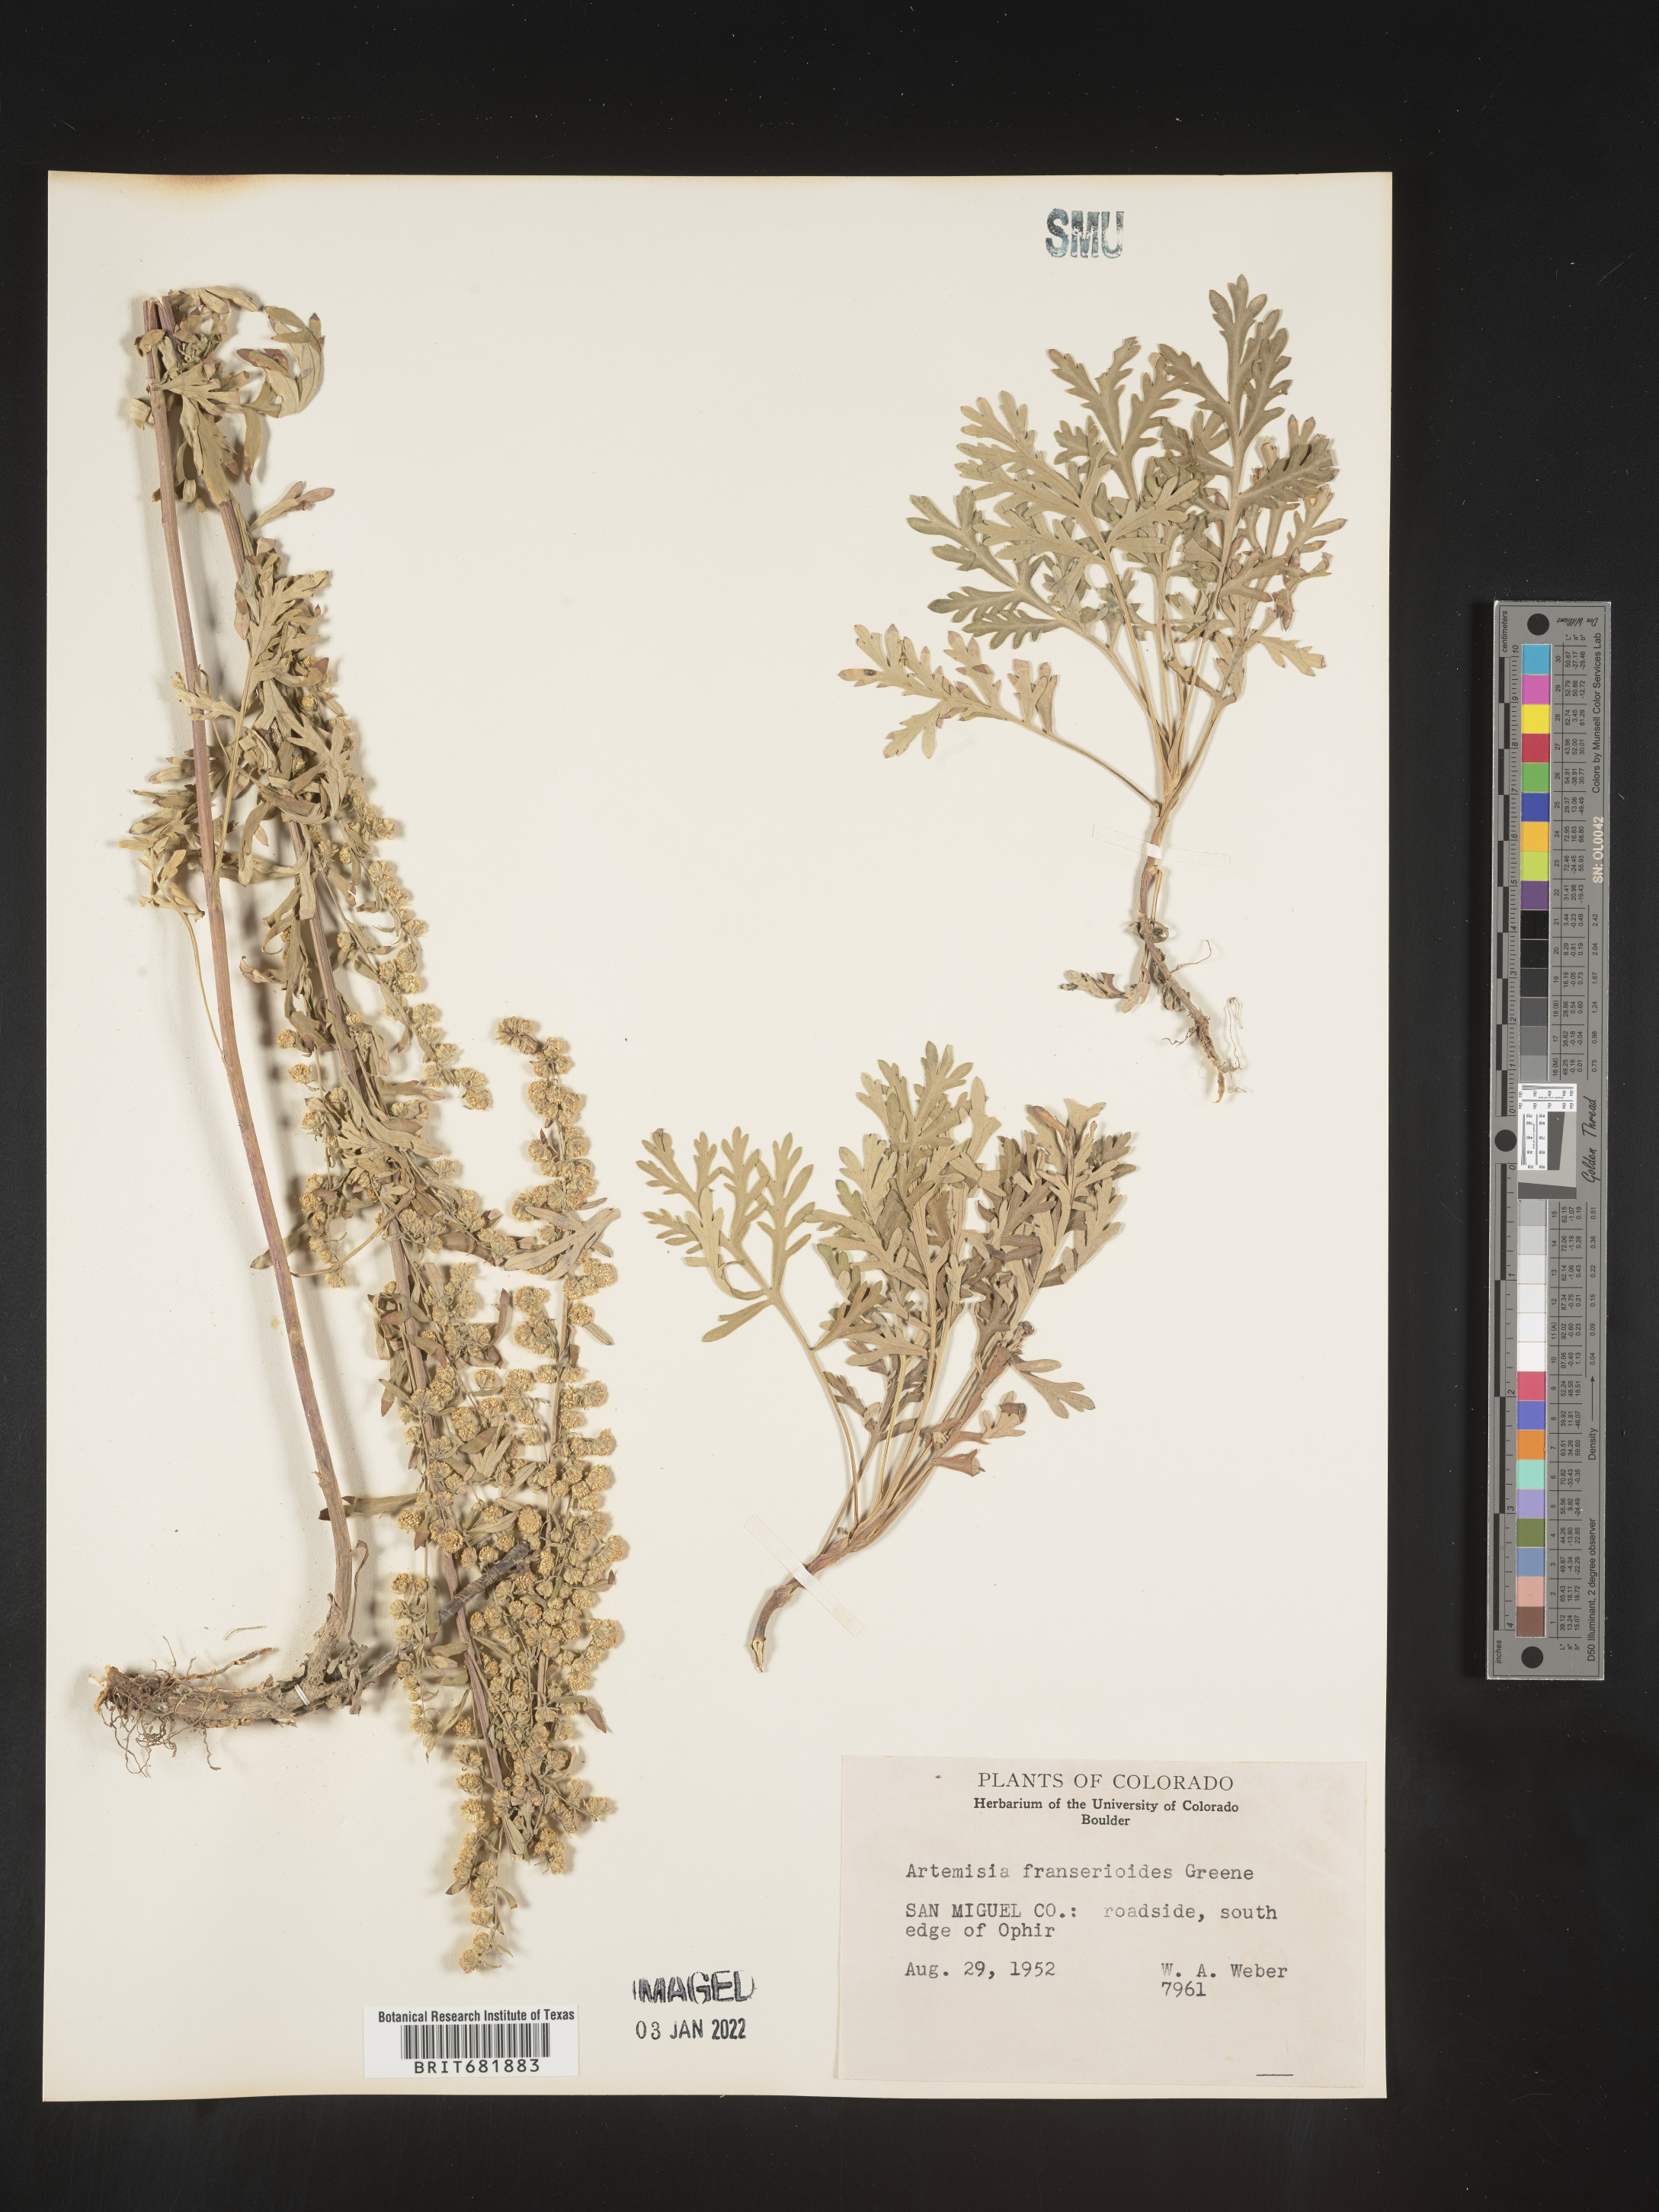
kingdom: Plantae
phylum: Tracheophyta
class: Magnoliopsida
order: Asterales
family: Asteraceae
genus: Artemisia
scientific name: Artemisia franserioides
